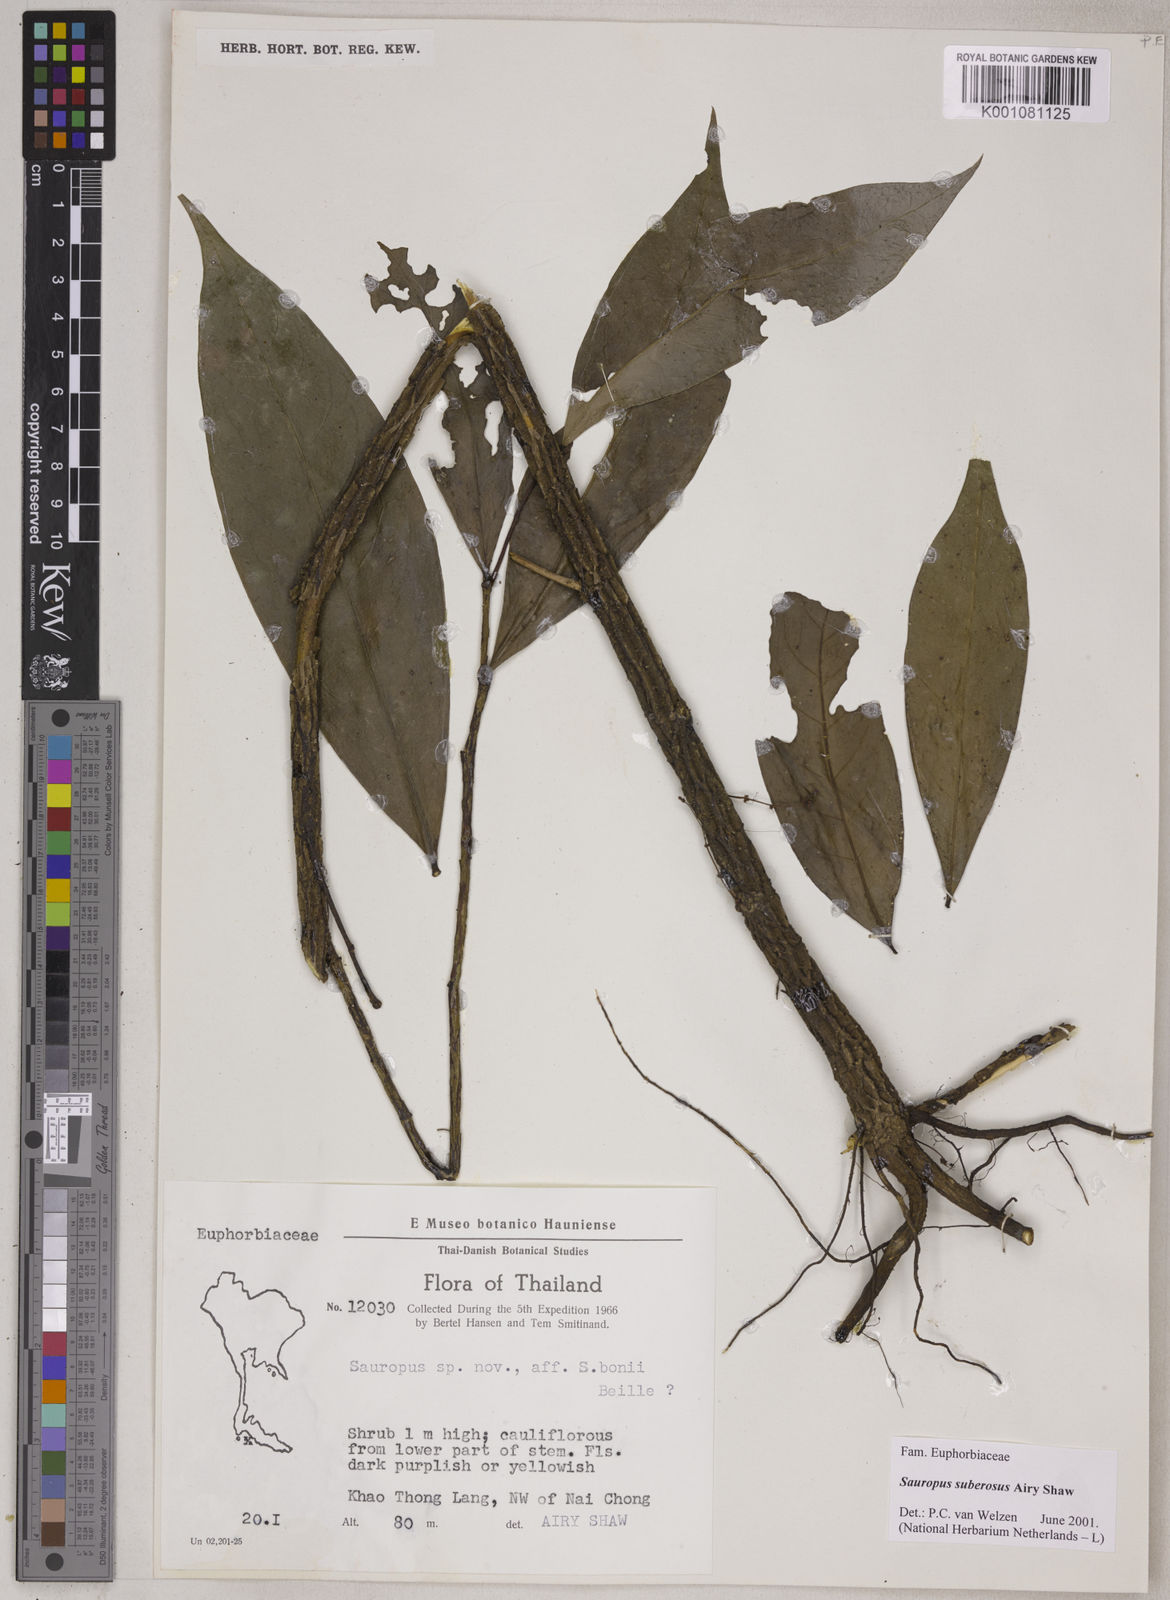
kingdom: Plantae
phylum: Tracheophyta
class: Magnoliopsida
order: Malpighiales
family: Phyllanthaceae
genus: Breynia
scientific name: Breynia suberosa
